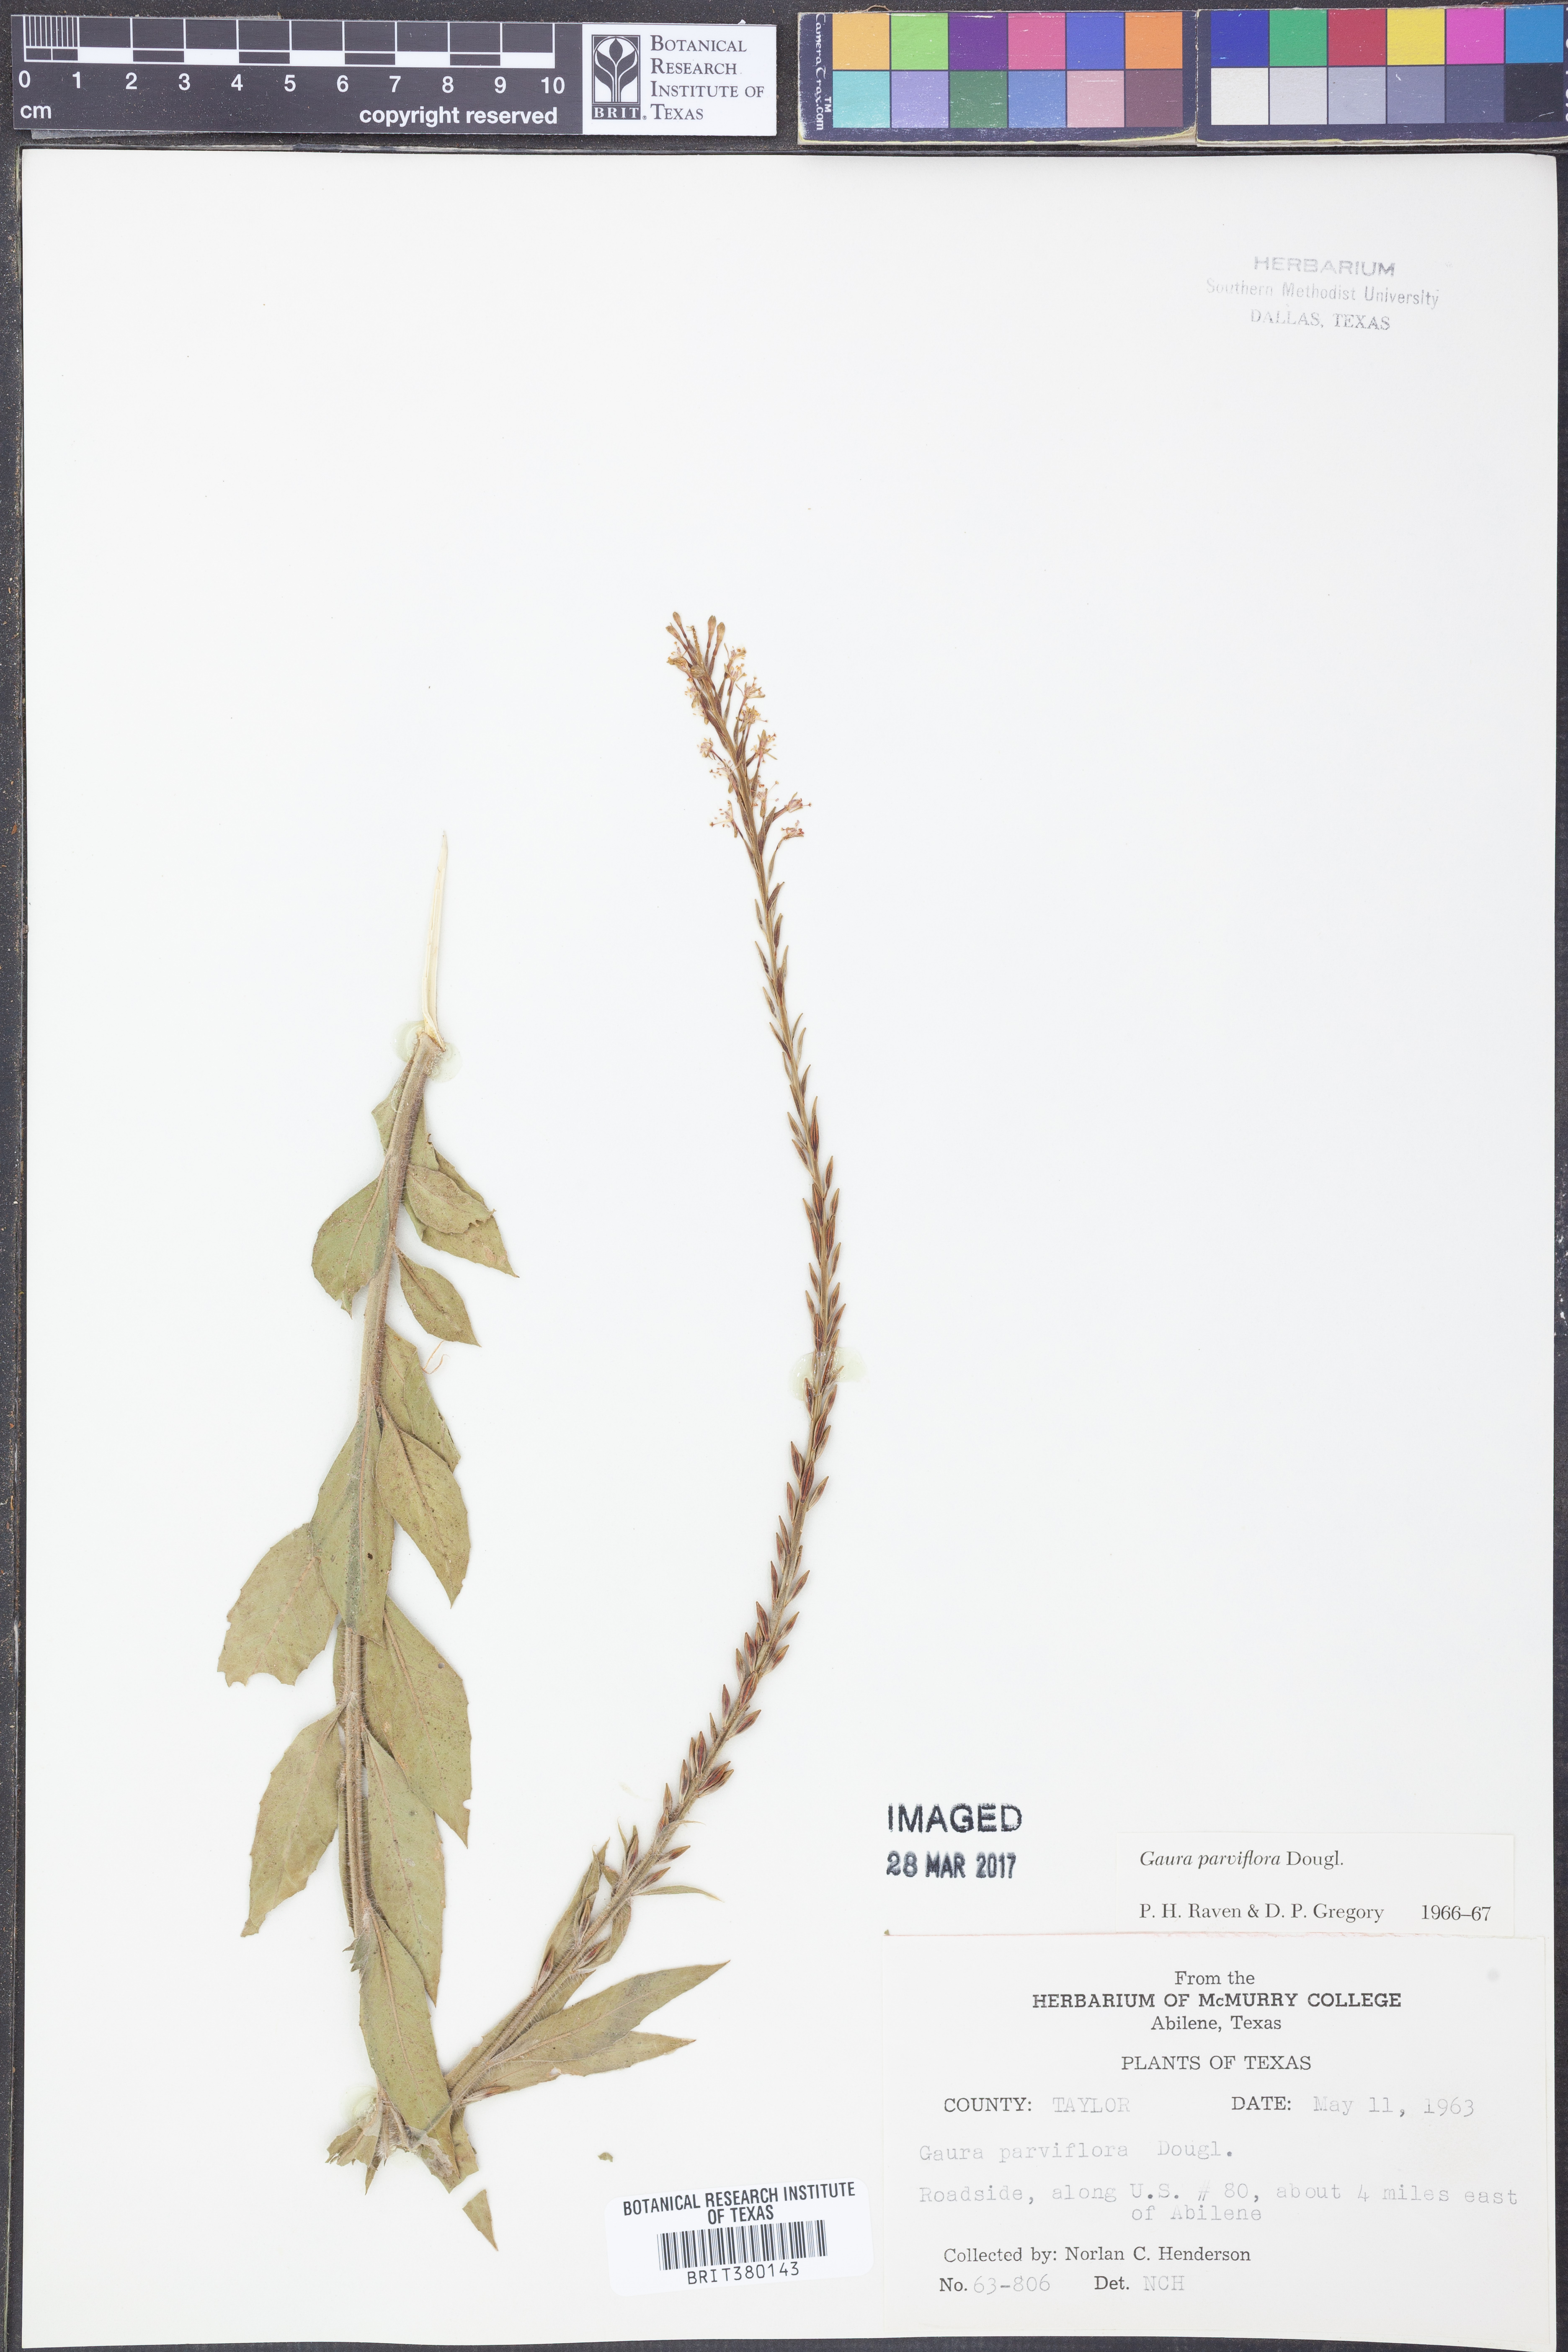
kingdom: Plantae
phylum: Tracheophyta
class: Magnoliopsida
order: Myrtales
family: Onagraceae
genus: Oenothera
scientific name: Oenothera curtiflora
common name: Velvetweed
